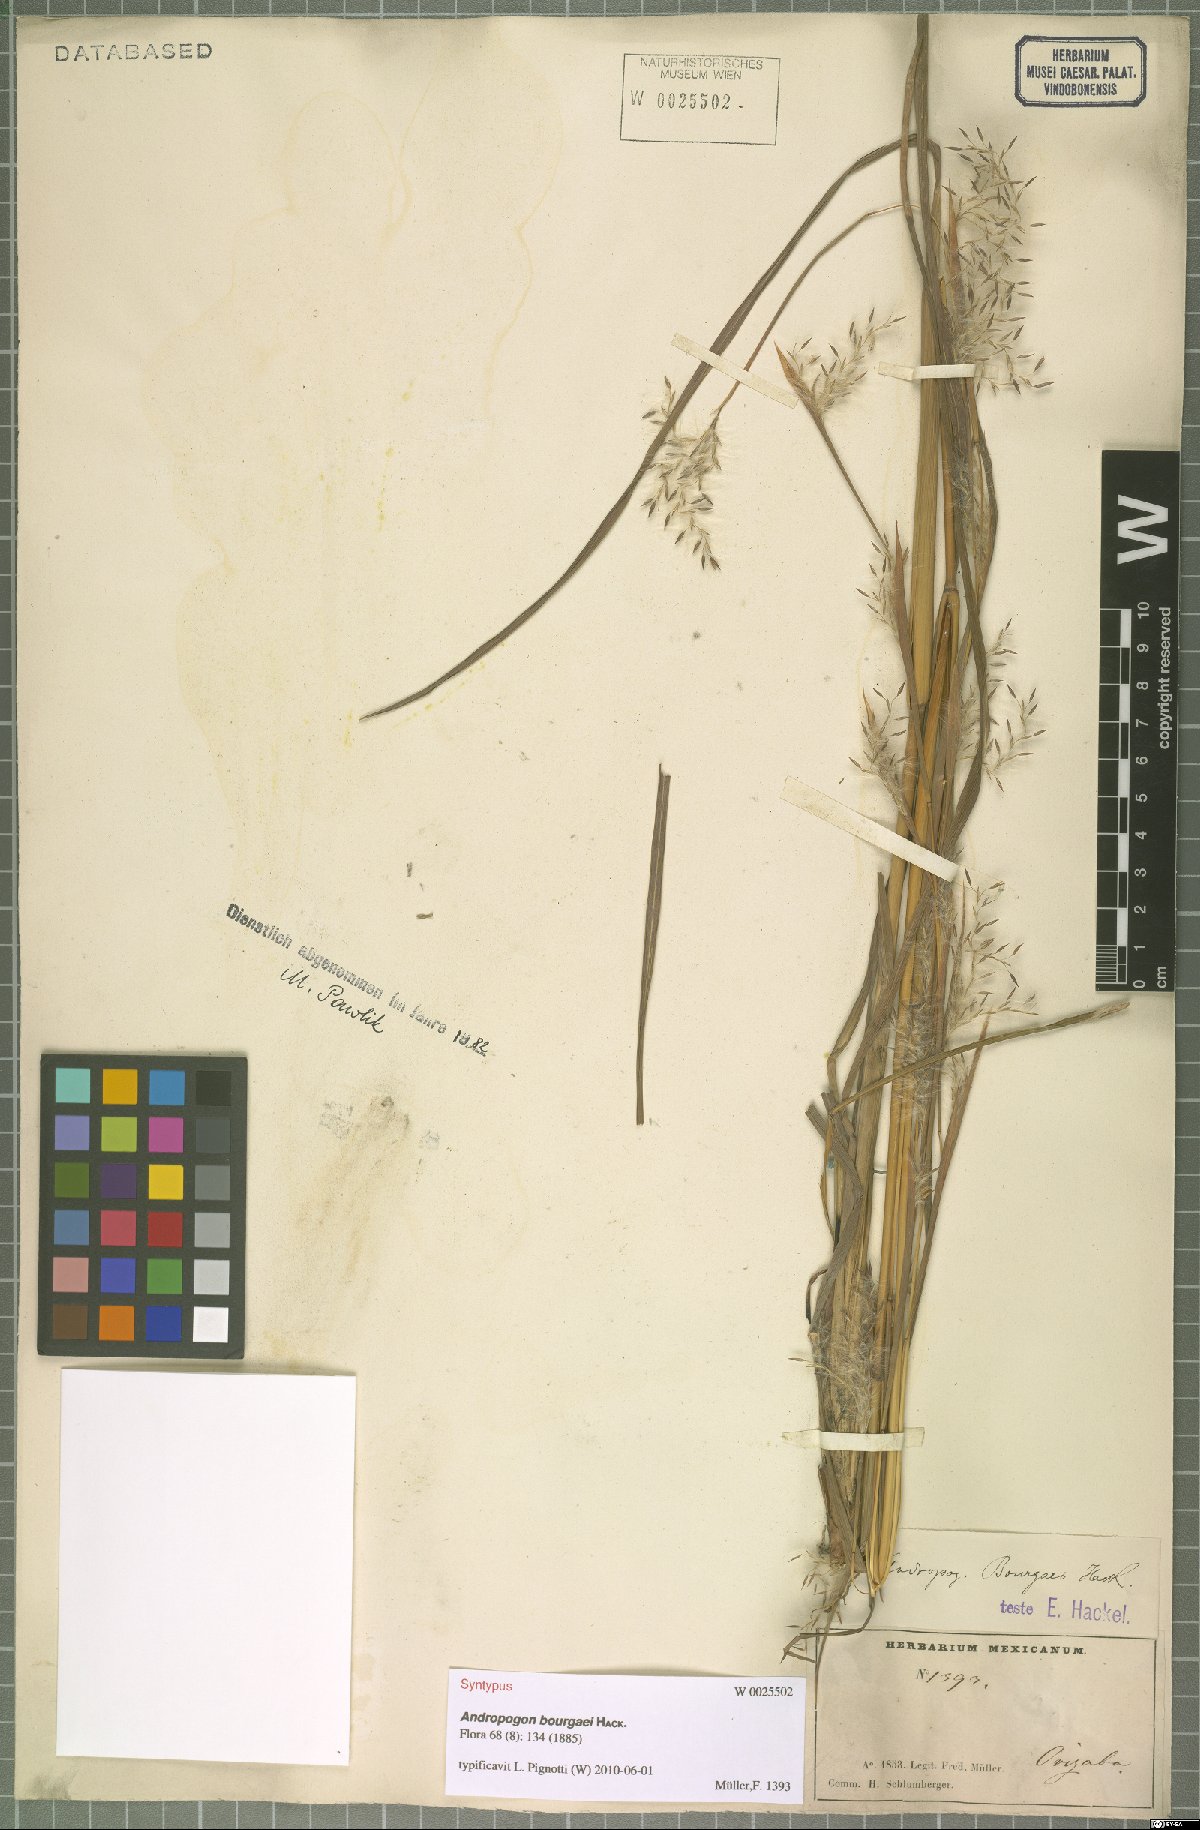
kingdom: Plantae
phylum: Tracheophyta
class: Liliopsida
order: Poales
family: Poaceae
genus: Andropogon
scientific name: Andropogon bourgaei
